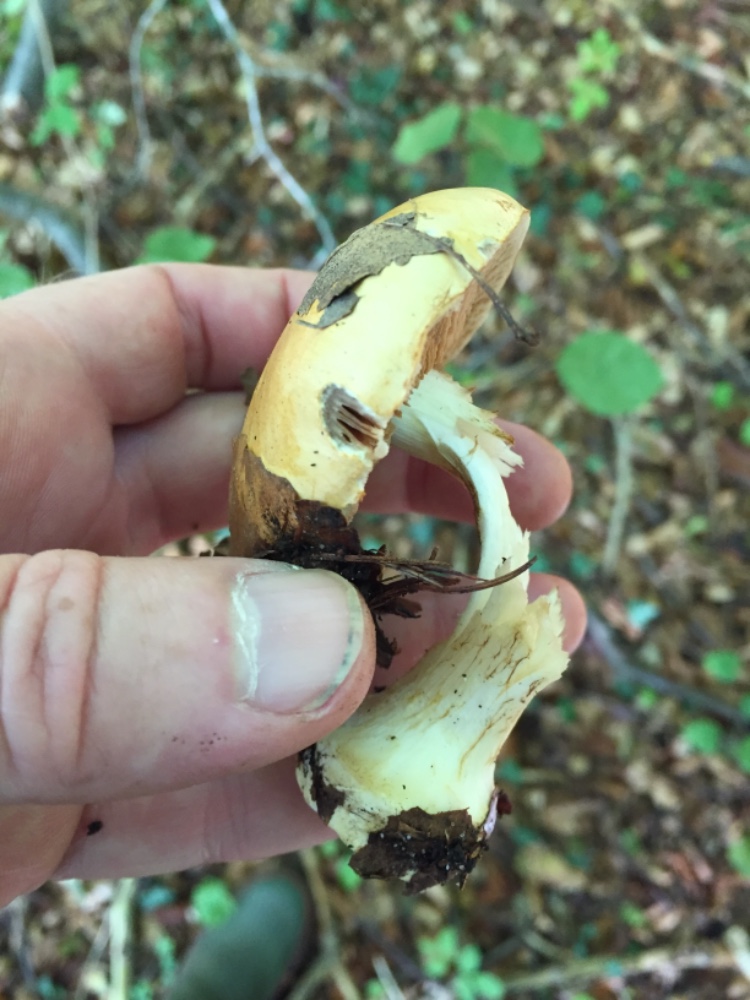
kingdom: Fungi
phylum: Basidiomycota
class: Agaricomycetes
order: Agaricales
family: Cortinariaceae
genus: Phlegmacium
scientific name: Phlegmacium rhizophorum
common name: finkornet slørhat
